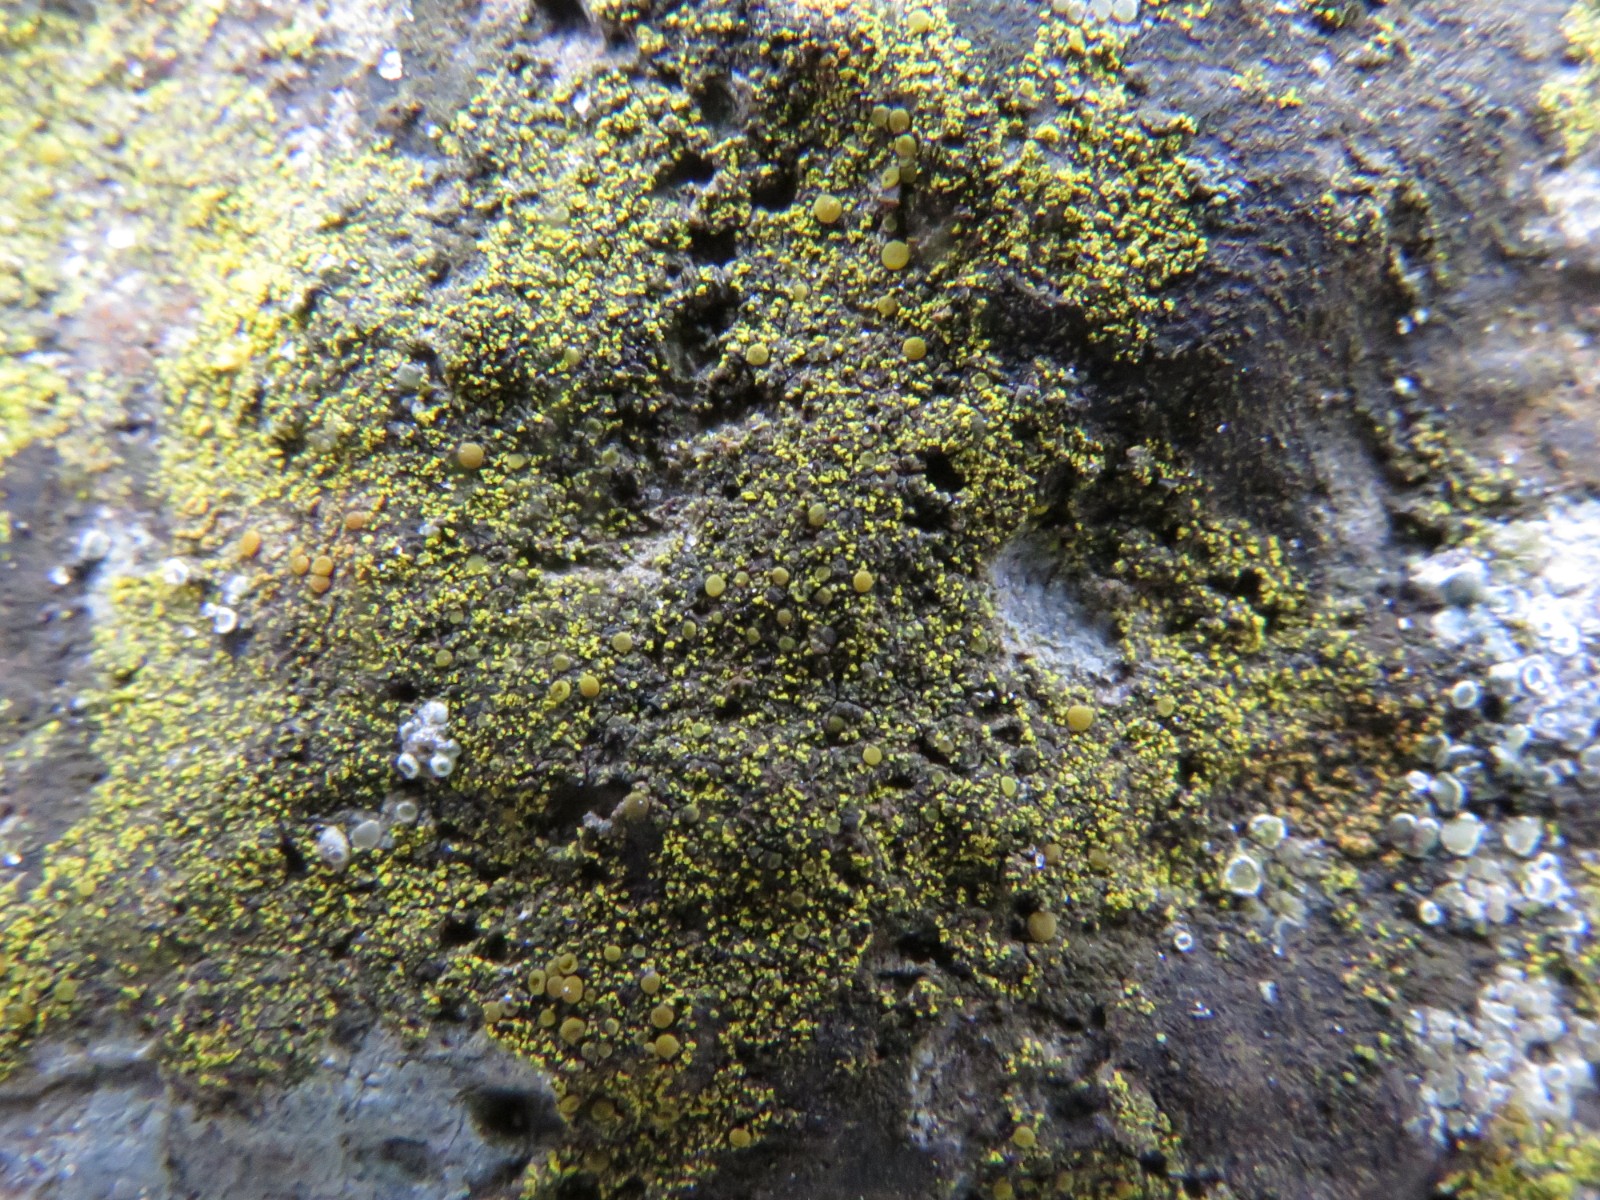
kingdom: Fungi
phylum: Ascomycota
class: Candelariomycetes
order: Candelariales
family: Candelariaceae
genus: Candelariella
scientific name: Candelariella aurella
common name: liden æggeblommelav
